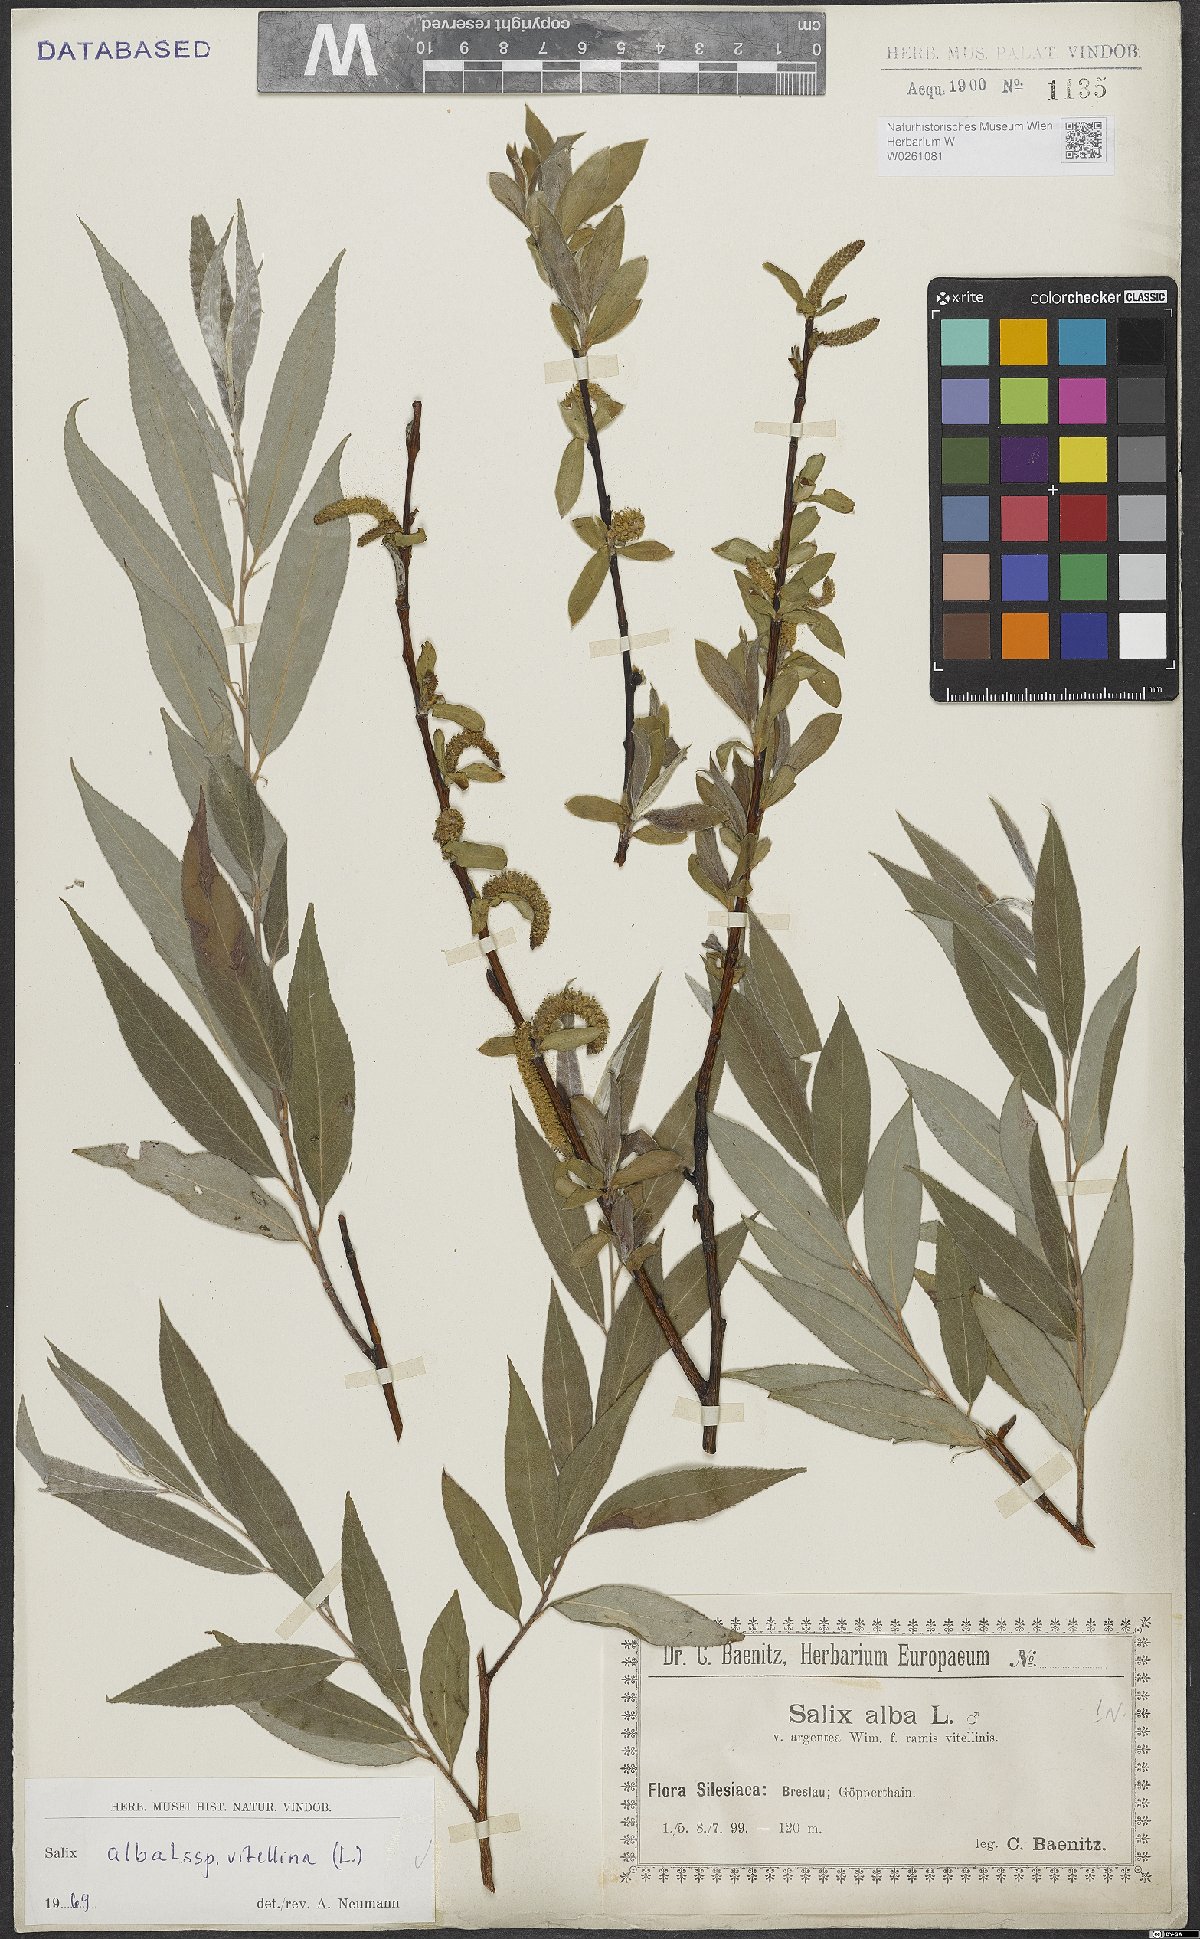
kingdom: Plantae
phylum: Tracheophyta
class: Magnoliopsida
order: Malpighiales
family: Salicaceae
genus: Salix
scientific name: Salix alba
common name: White willow
